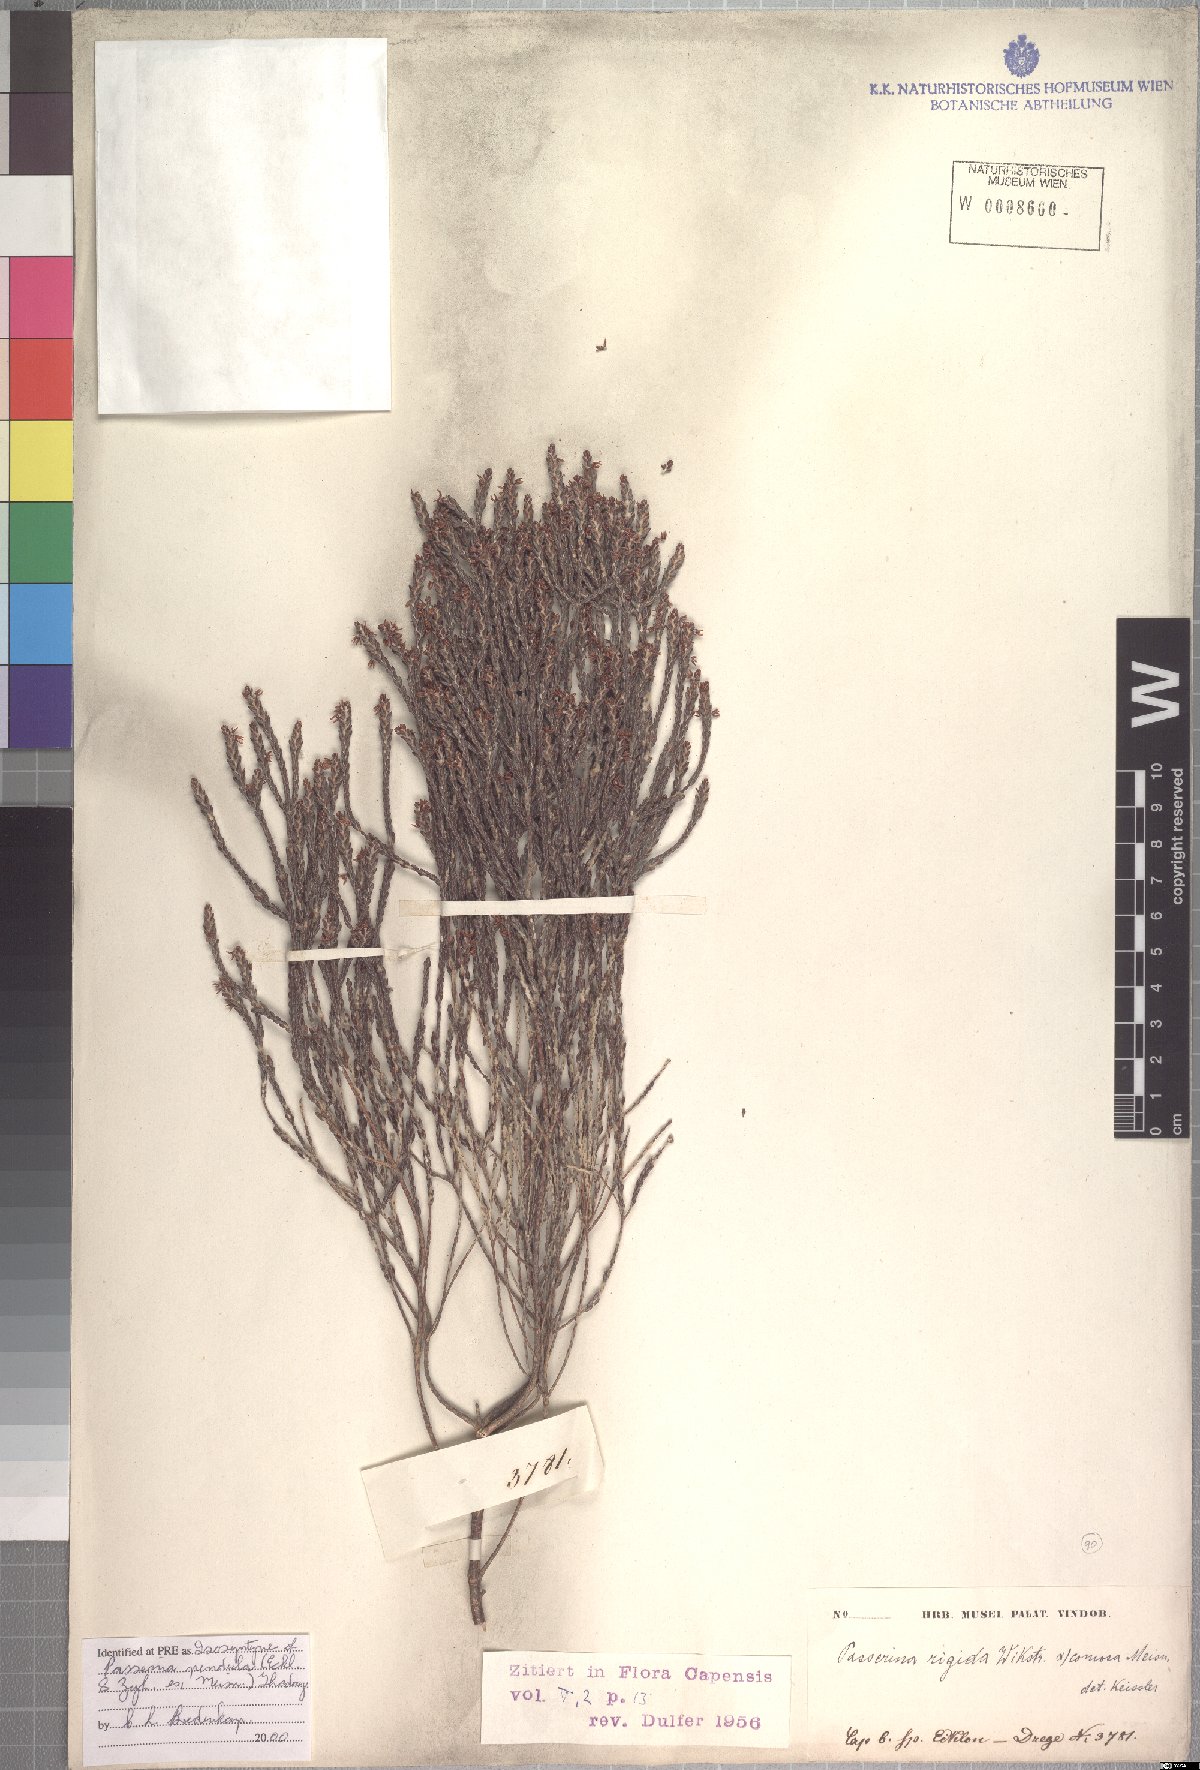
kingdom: Plantae
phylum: Tracheophyta
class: Magnoliopsida
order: Malvales
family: Thymelaeaceae
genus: Passerina
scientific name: Passerina pendula
